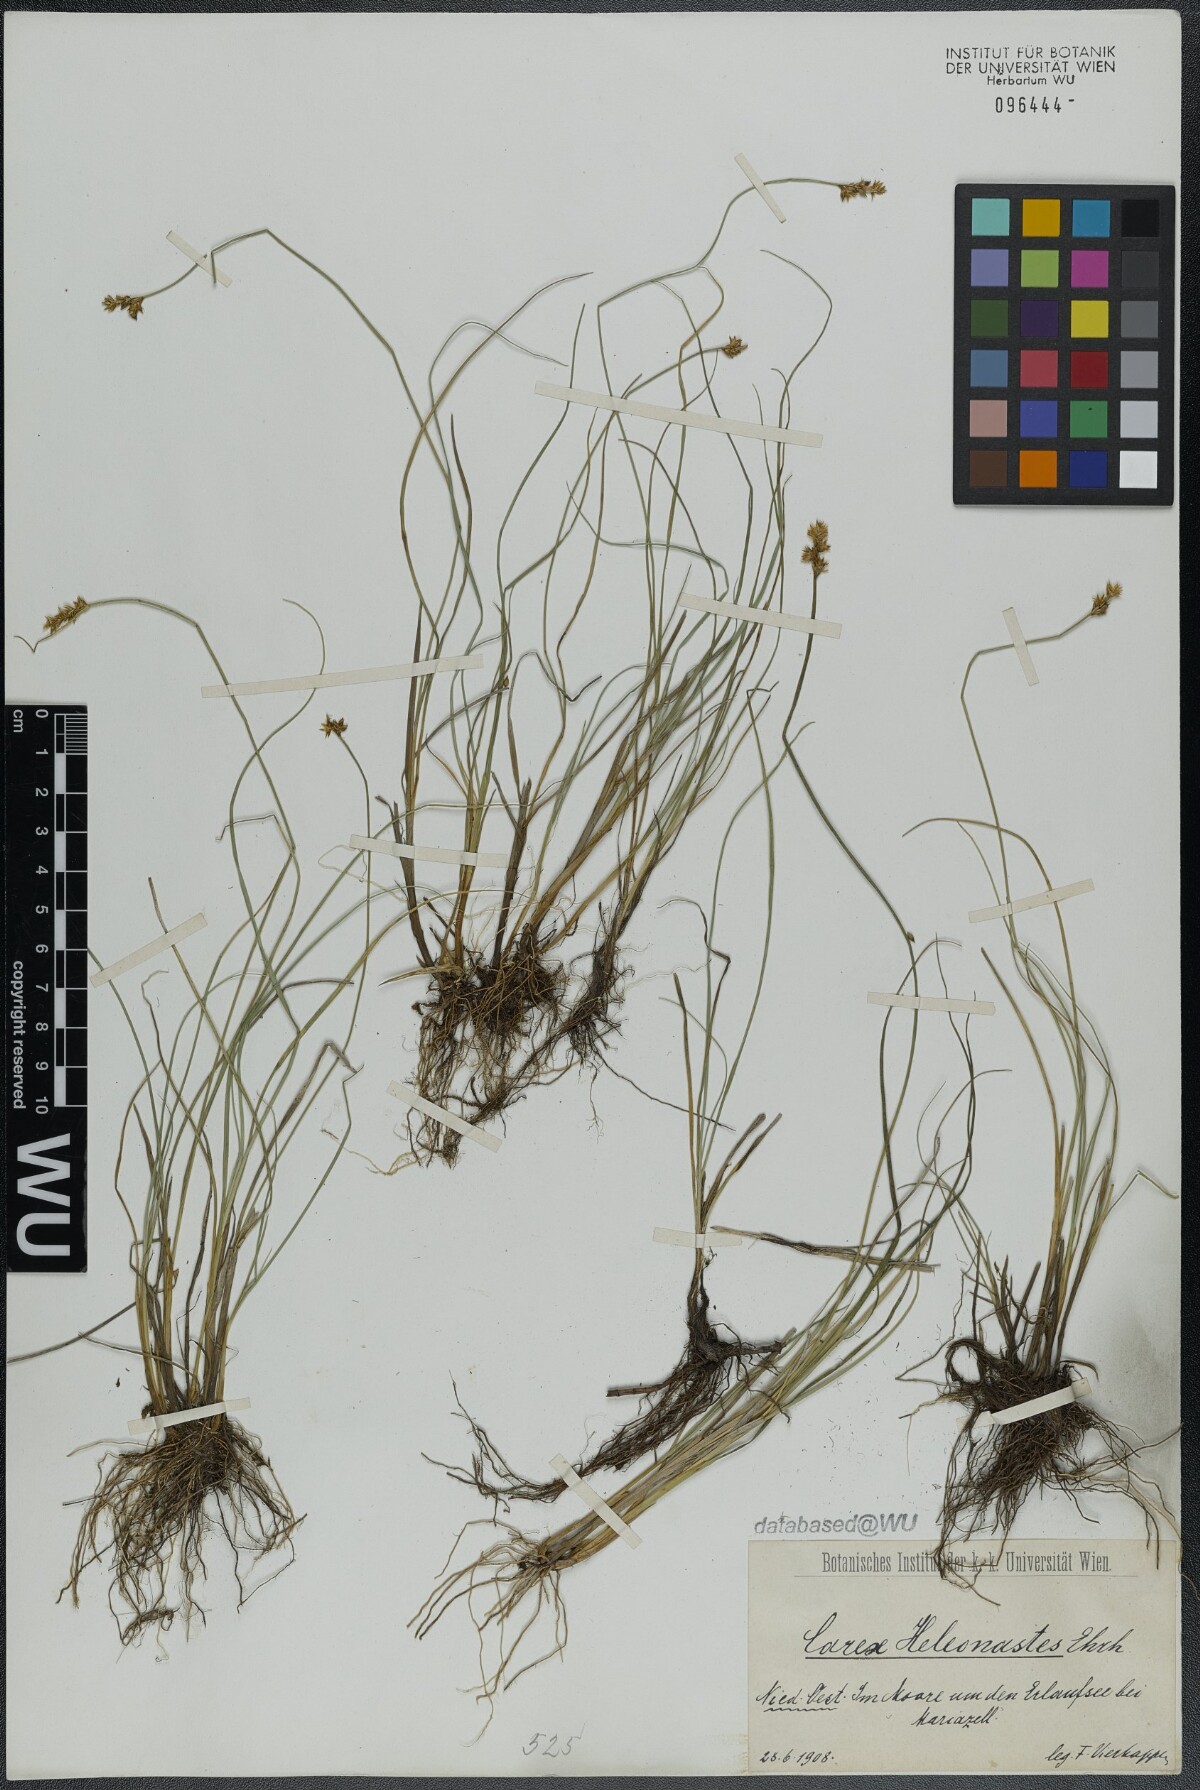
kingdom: Plantae
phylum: Tracheophyta
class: Liliopsida
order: Poales
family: Cyperaceae
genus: Carex
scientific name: Carex heleonastes
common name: Hudson bay sedge
